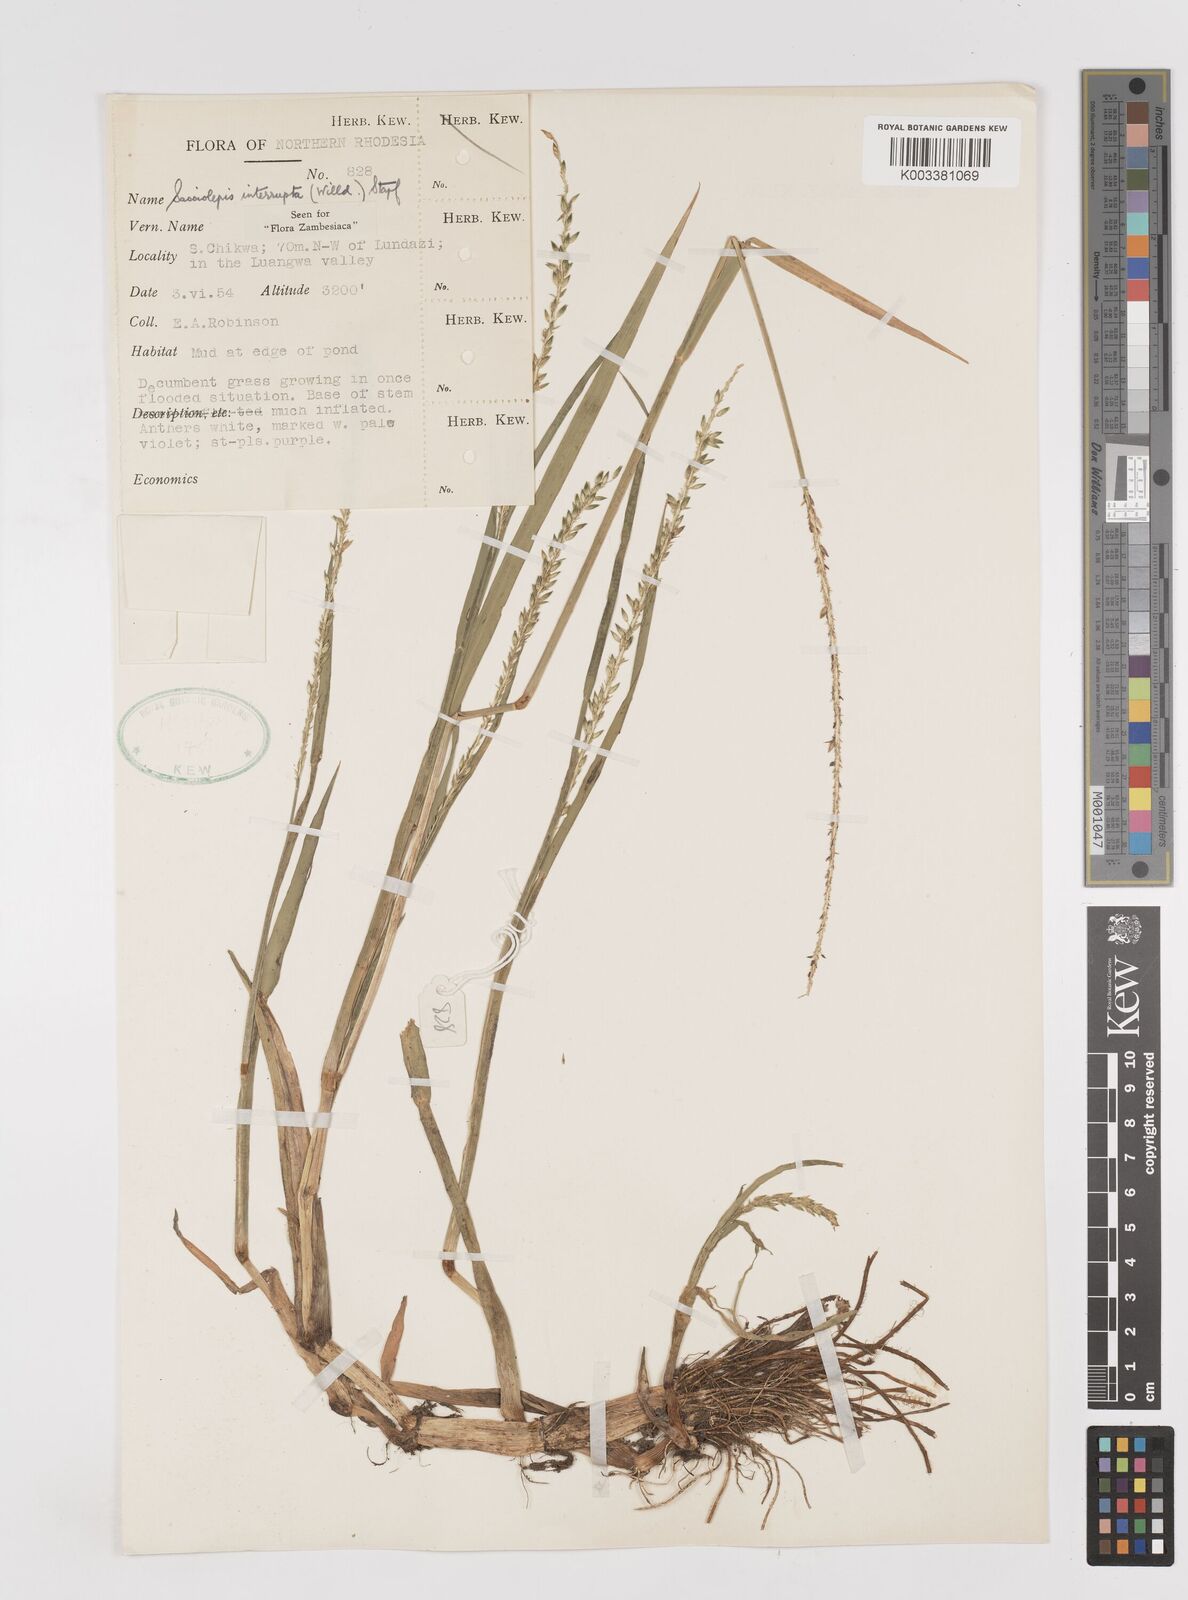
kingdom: Plantae
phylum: Tracheophyta
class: Liliopsida
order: Poales
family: Poaceae
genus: Sacciolepis
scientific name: Sacciolepis interrupta
